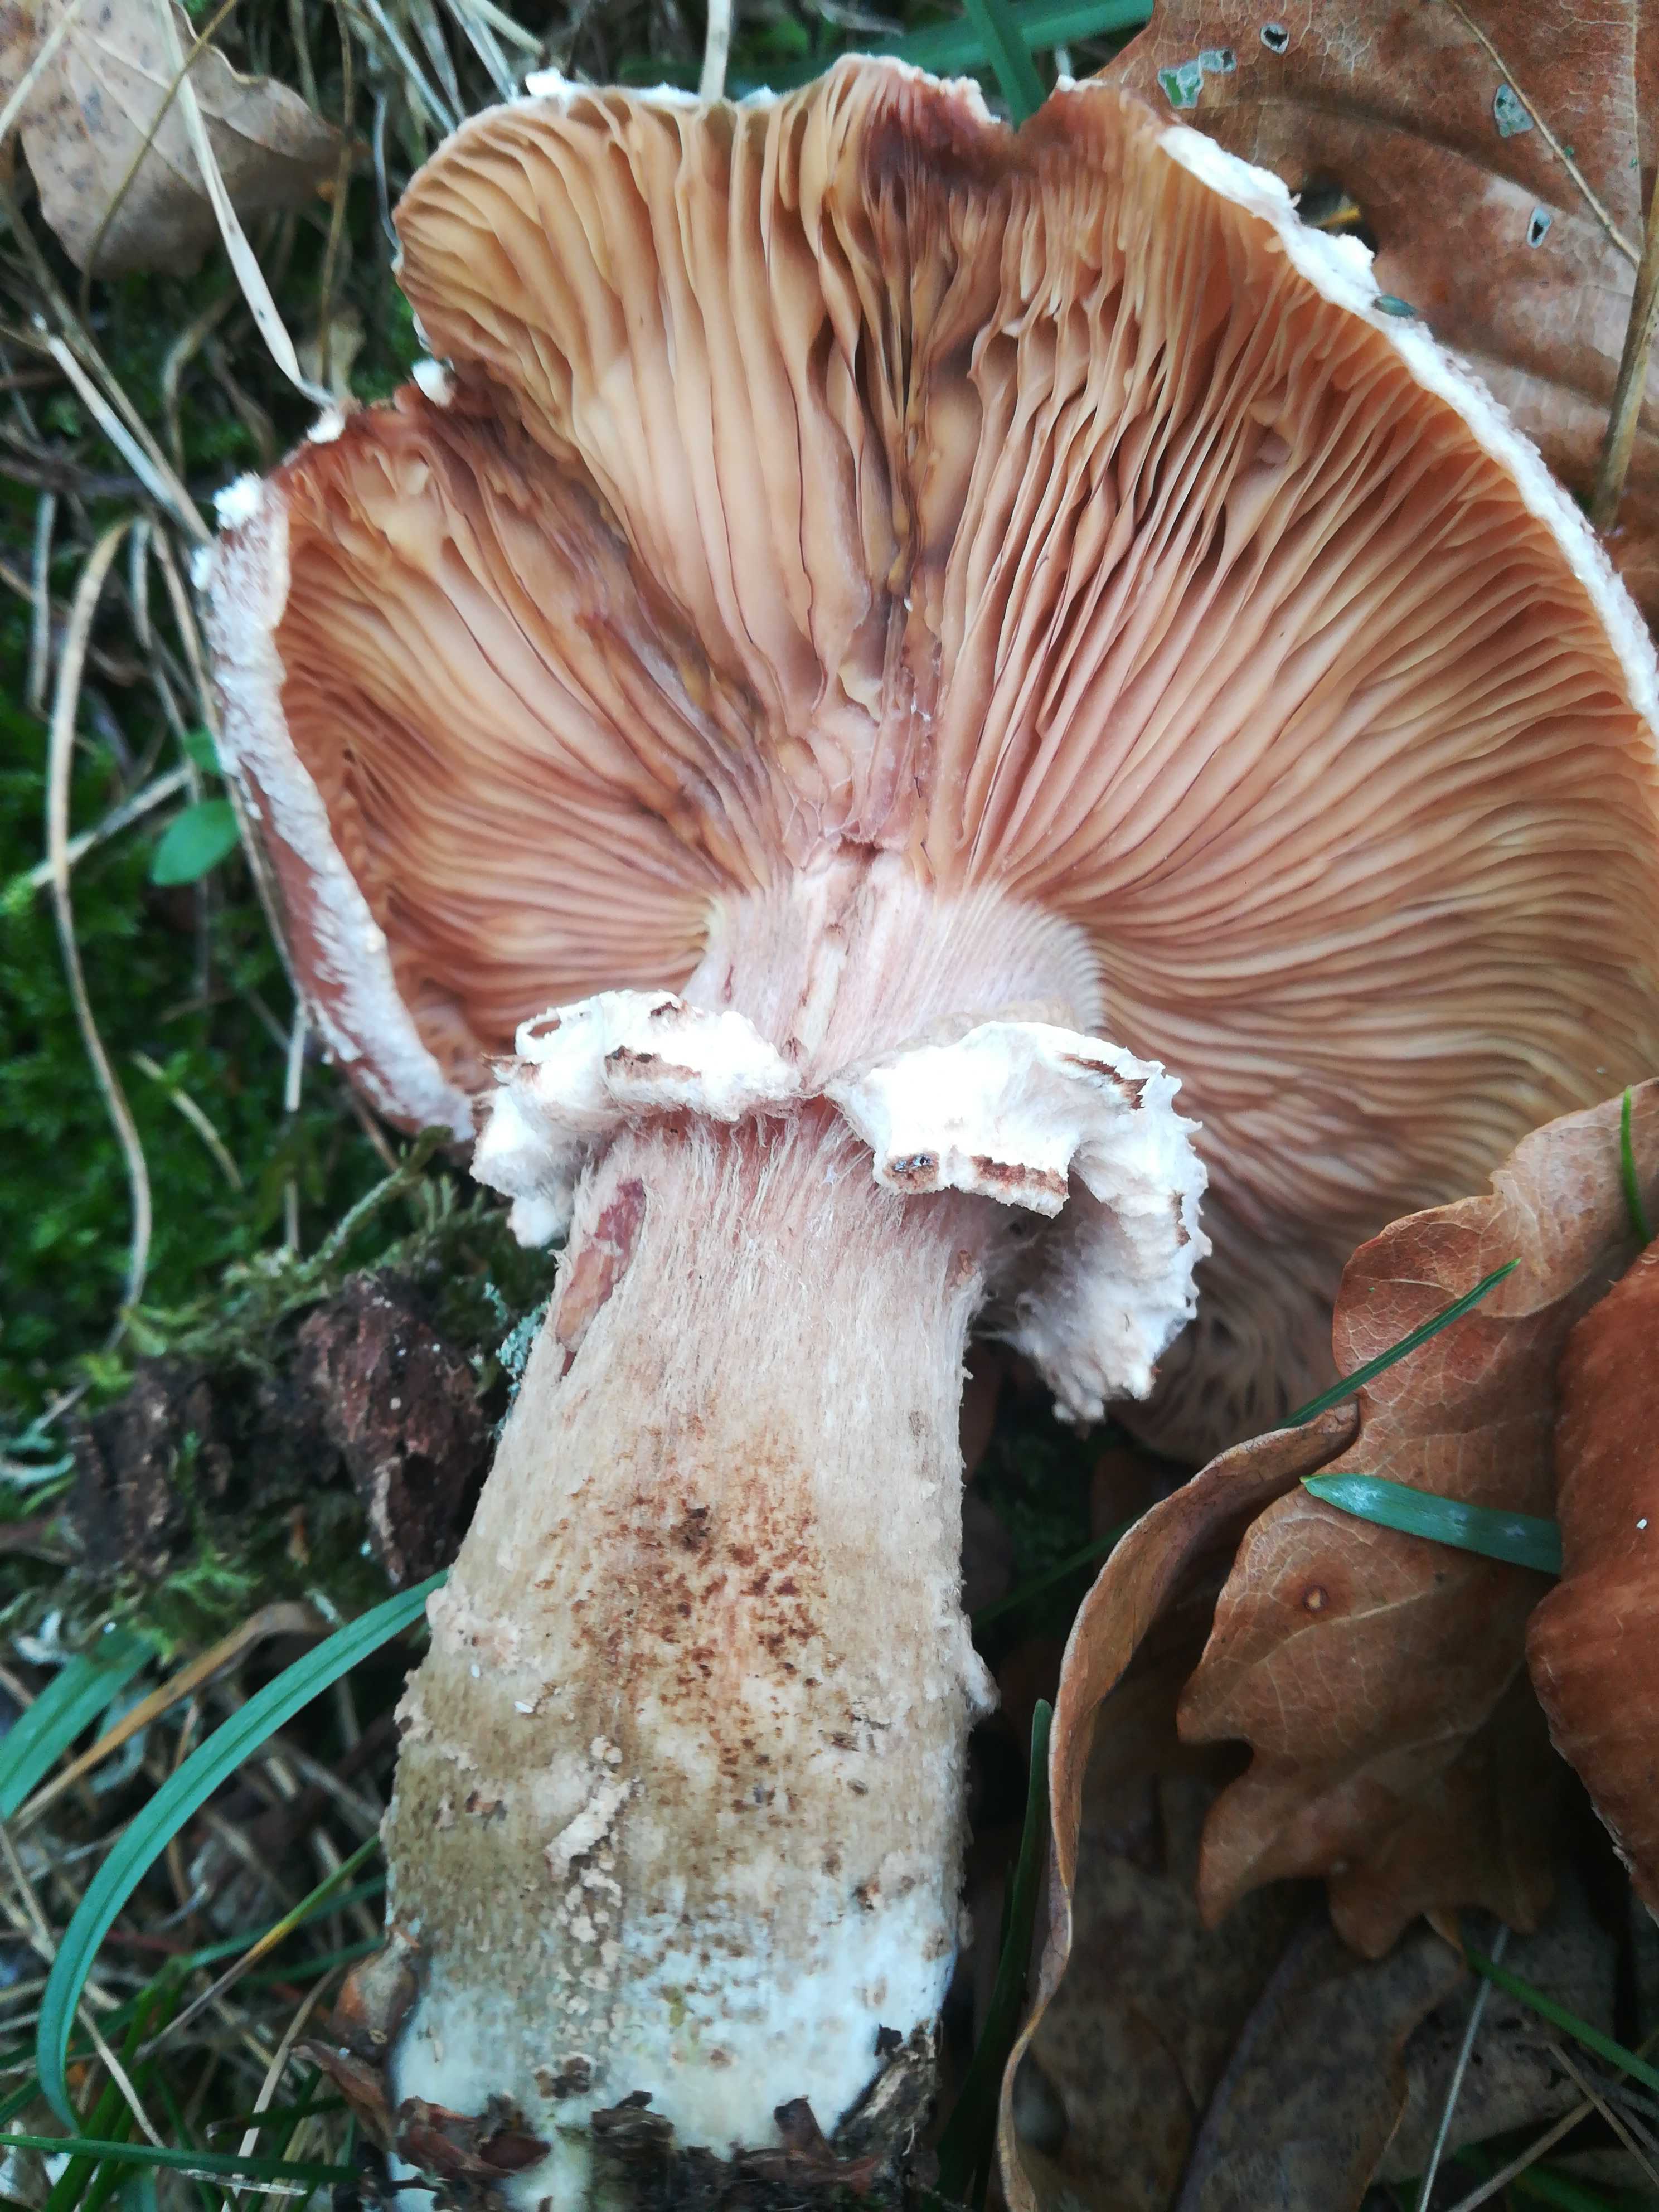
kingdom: Fungi
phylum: Basidiomycota
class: Agaricomycetes
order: Agaricales
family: Physalacriaceae
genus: Armillaria
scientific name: Armillaria
